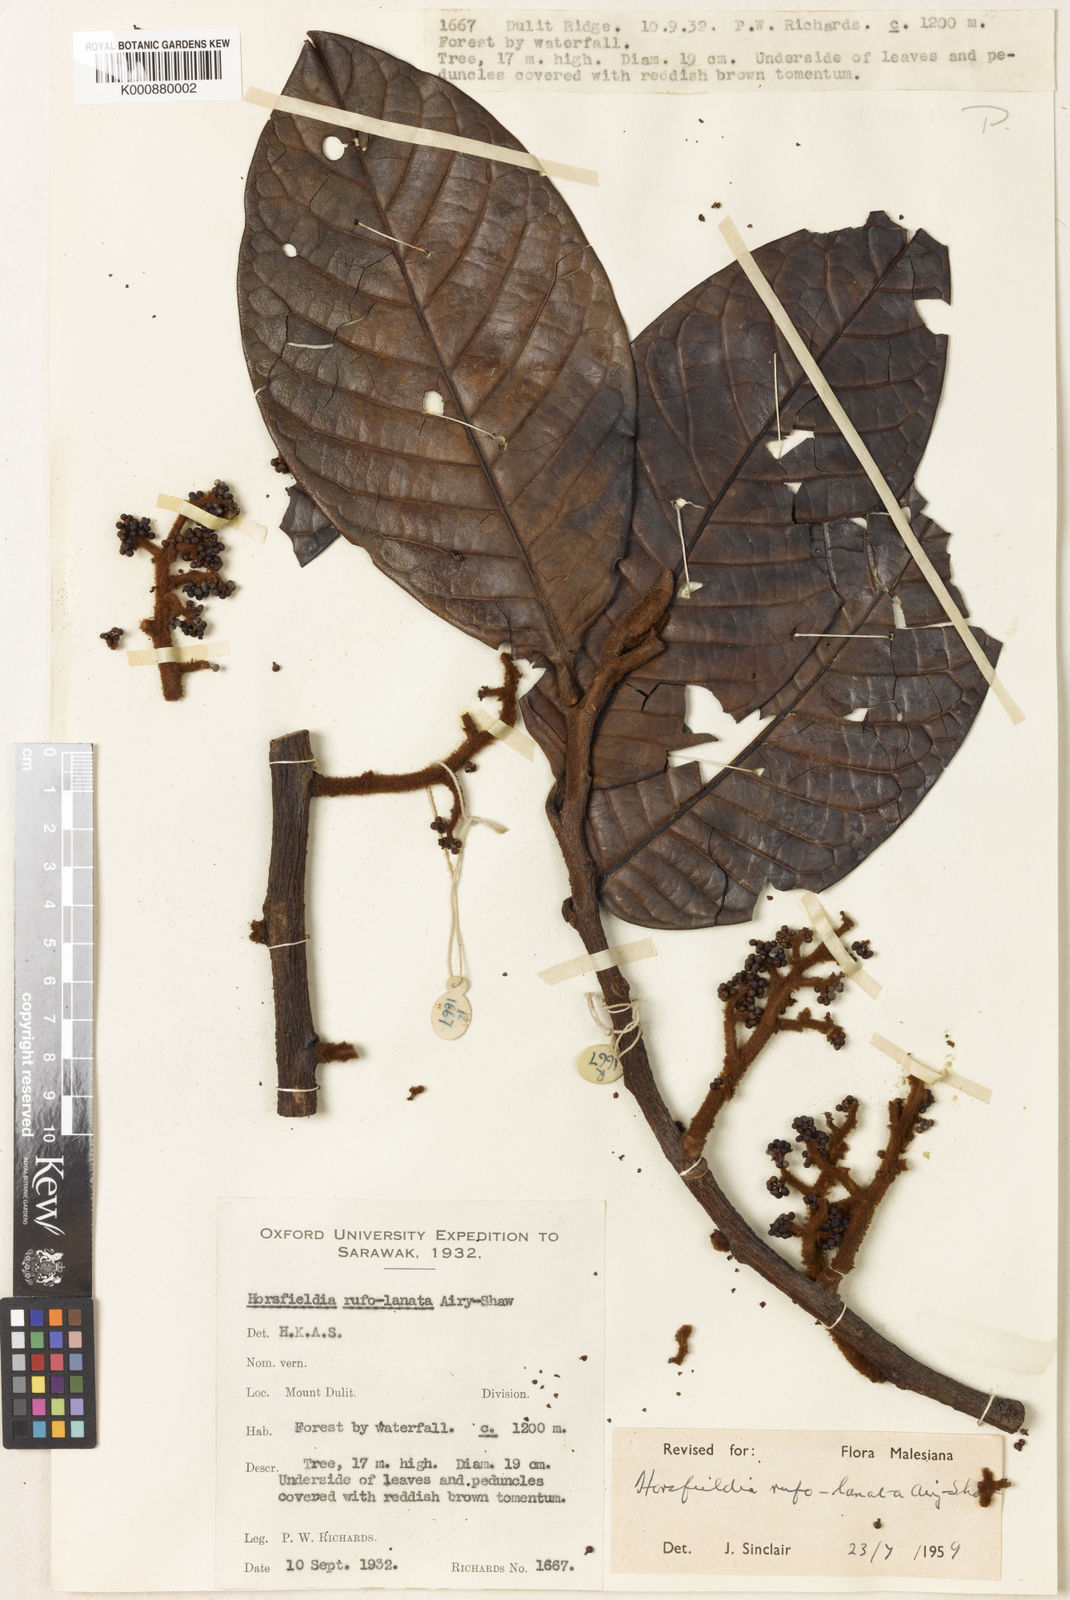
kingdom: Plantae
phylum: Tracheophyta
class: Magnoliopsida
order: Magnoliales
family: Myristicaceae
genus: Horsfieldia
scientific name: Horsfieldia rufolanata
